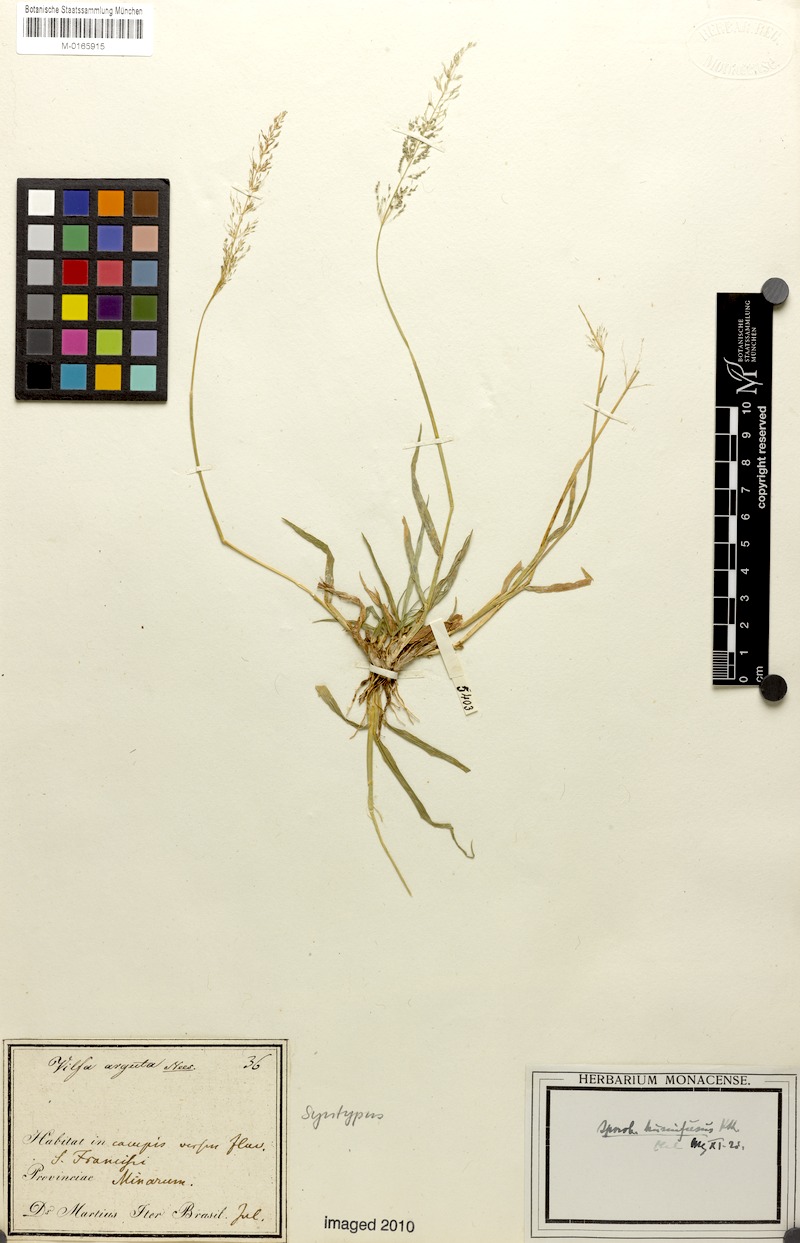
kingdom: Plantae
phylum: Tracheophyta
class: Liliopsida
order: Poales
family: Poaceae
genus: Sporobolus
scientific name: Sporobolus pyramidatus
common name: Whorled dropseed
